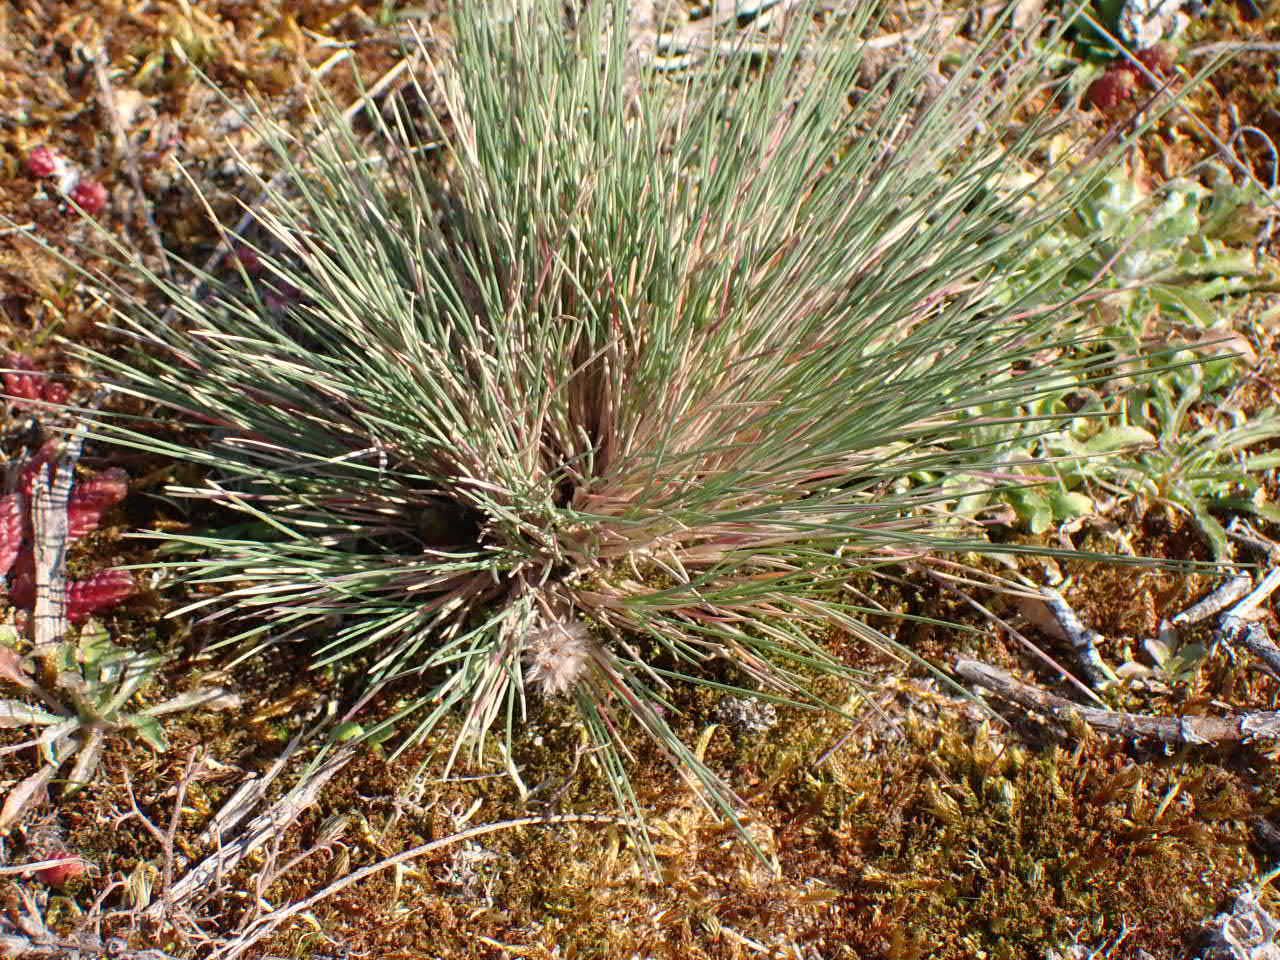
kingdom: Plantae
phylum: Tracheophyta
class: Liliopsida
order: Poales
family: Poaceae
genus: Corynephorus
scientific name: Corynephorus canescens
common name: Sandskæg
